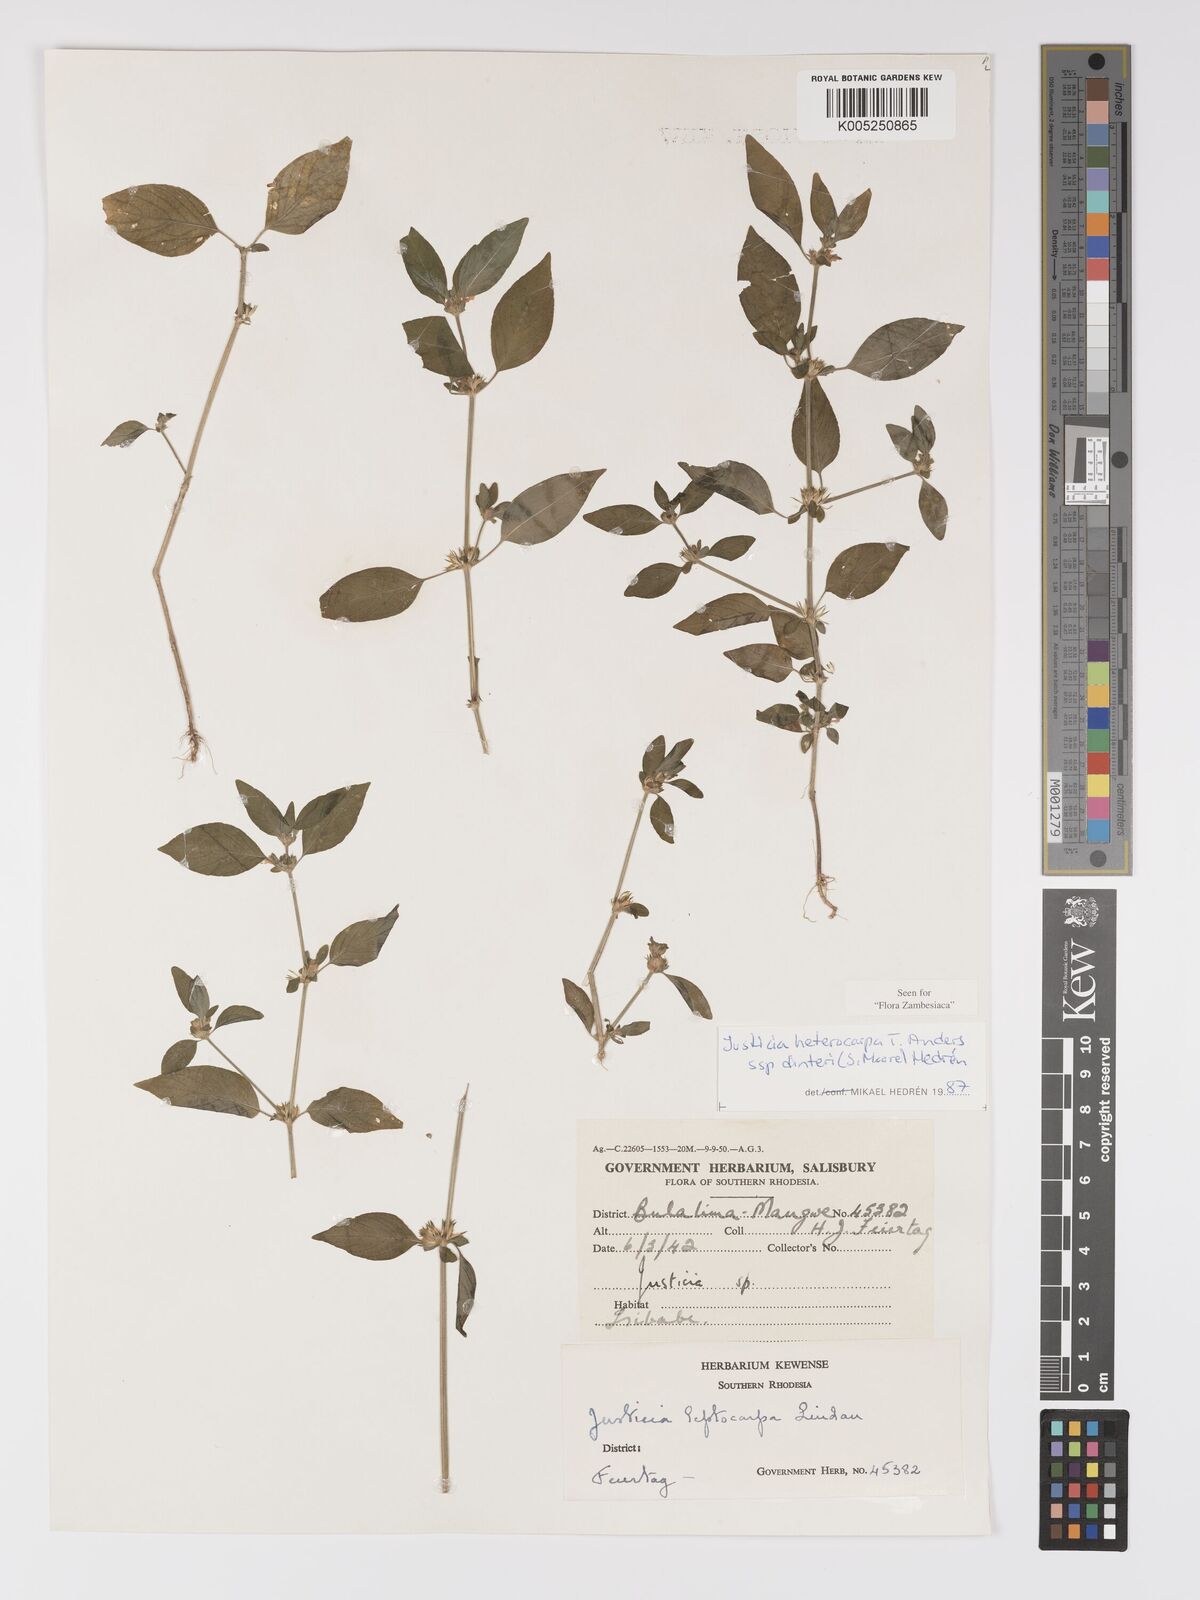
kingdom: Plantae
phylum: Tracheophyta
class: Magnoliopsida
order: Lamiales
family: Acanthaceae
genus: Justicia
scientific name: Justicia heterocarpa
